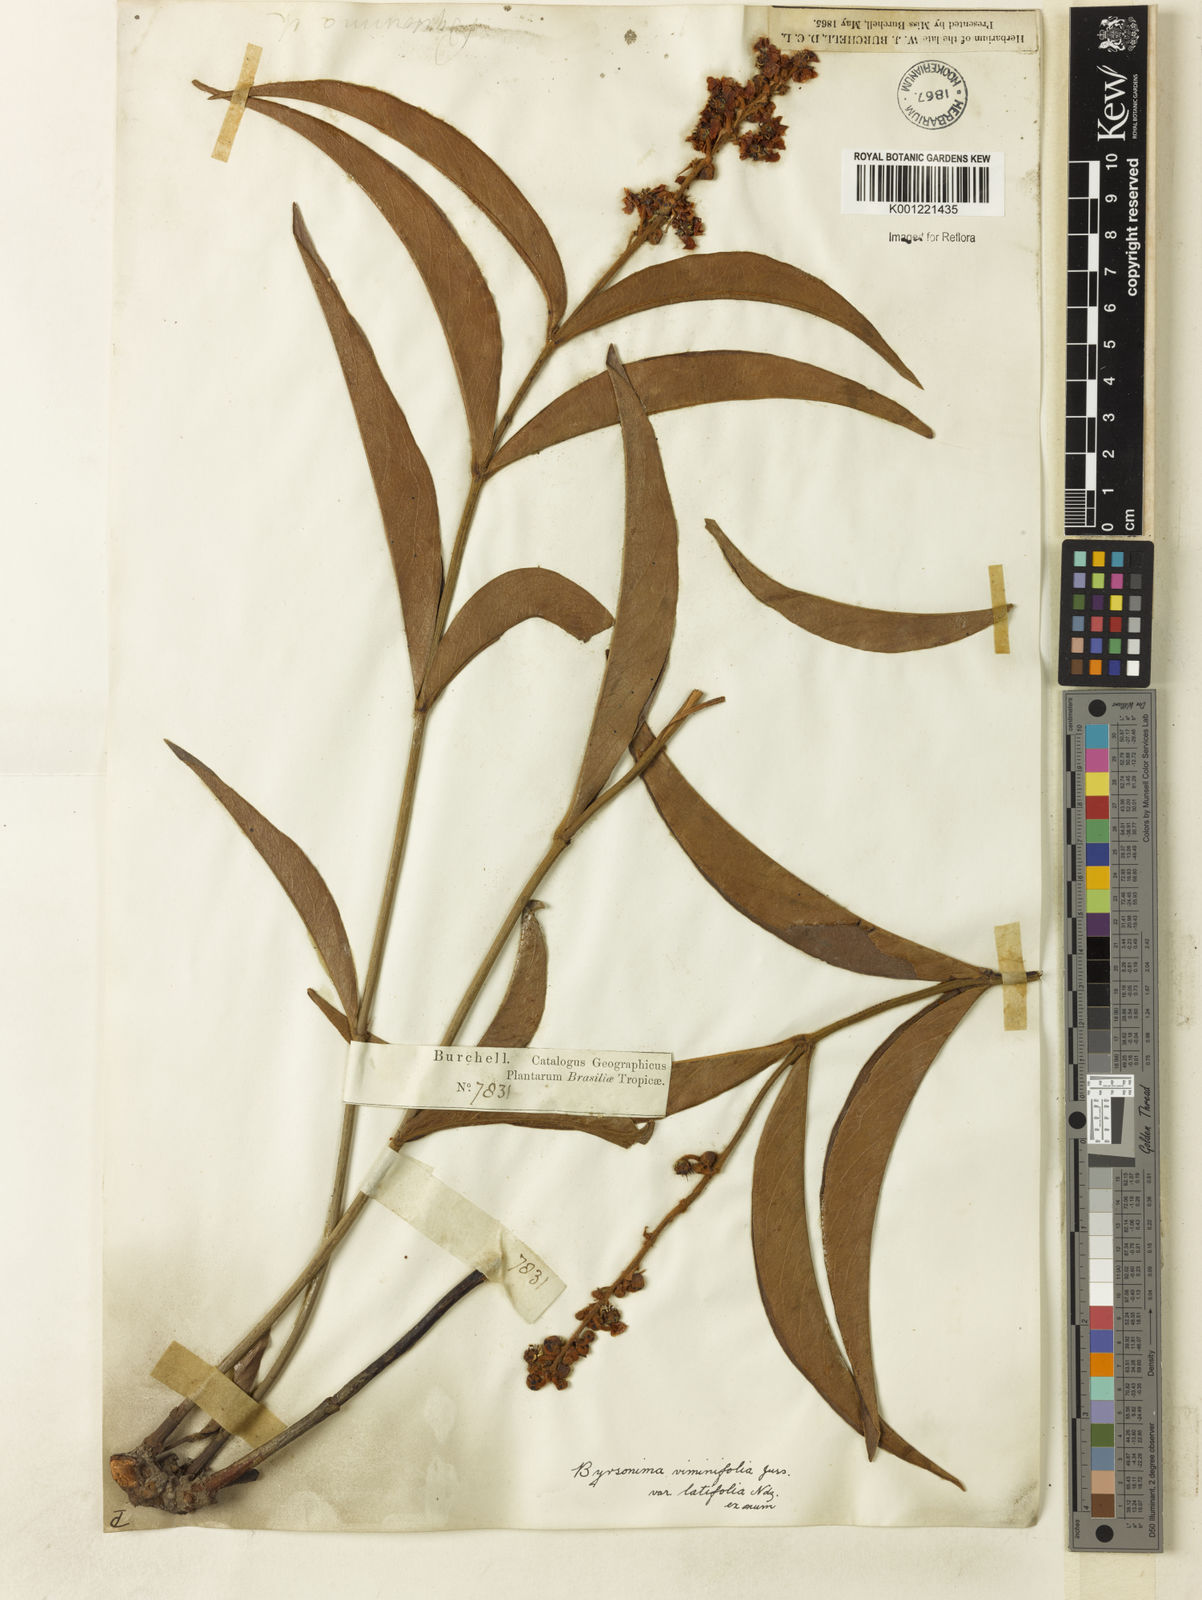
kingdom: Plantae
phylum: Tracheophyta
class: Magnoliopsida
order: Malpighiales
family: Malpighiaceae
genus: Byrsonima
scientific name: Byrsonima viminifolia
